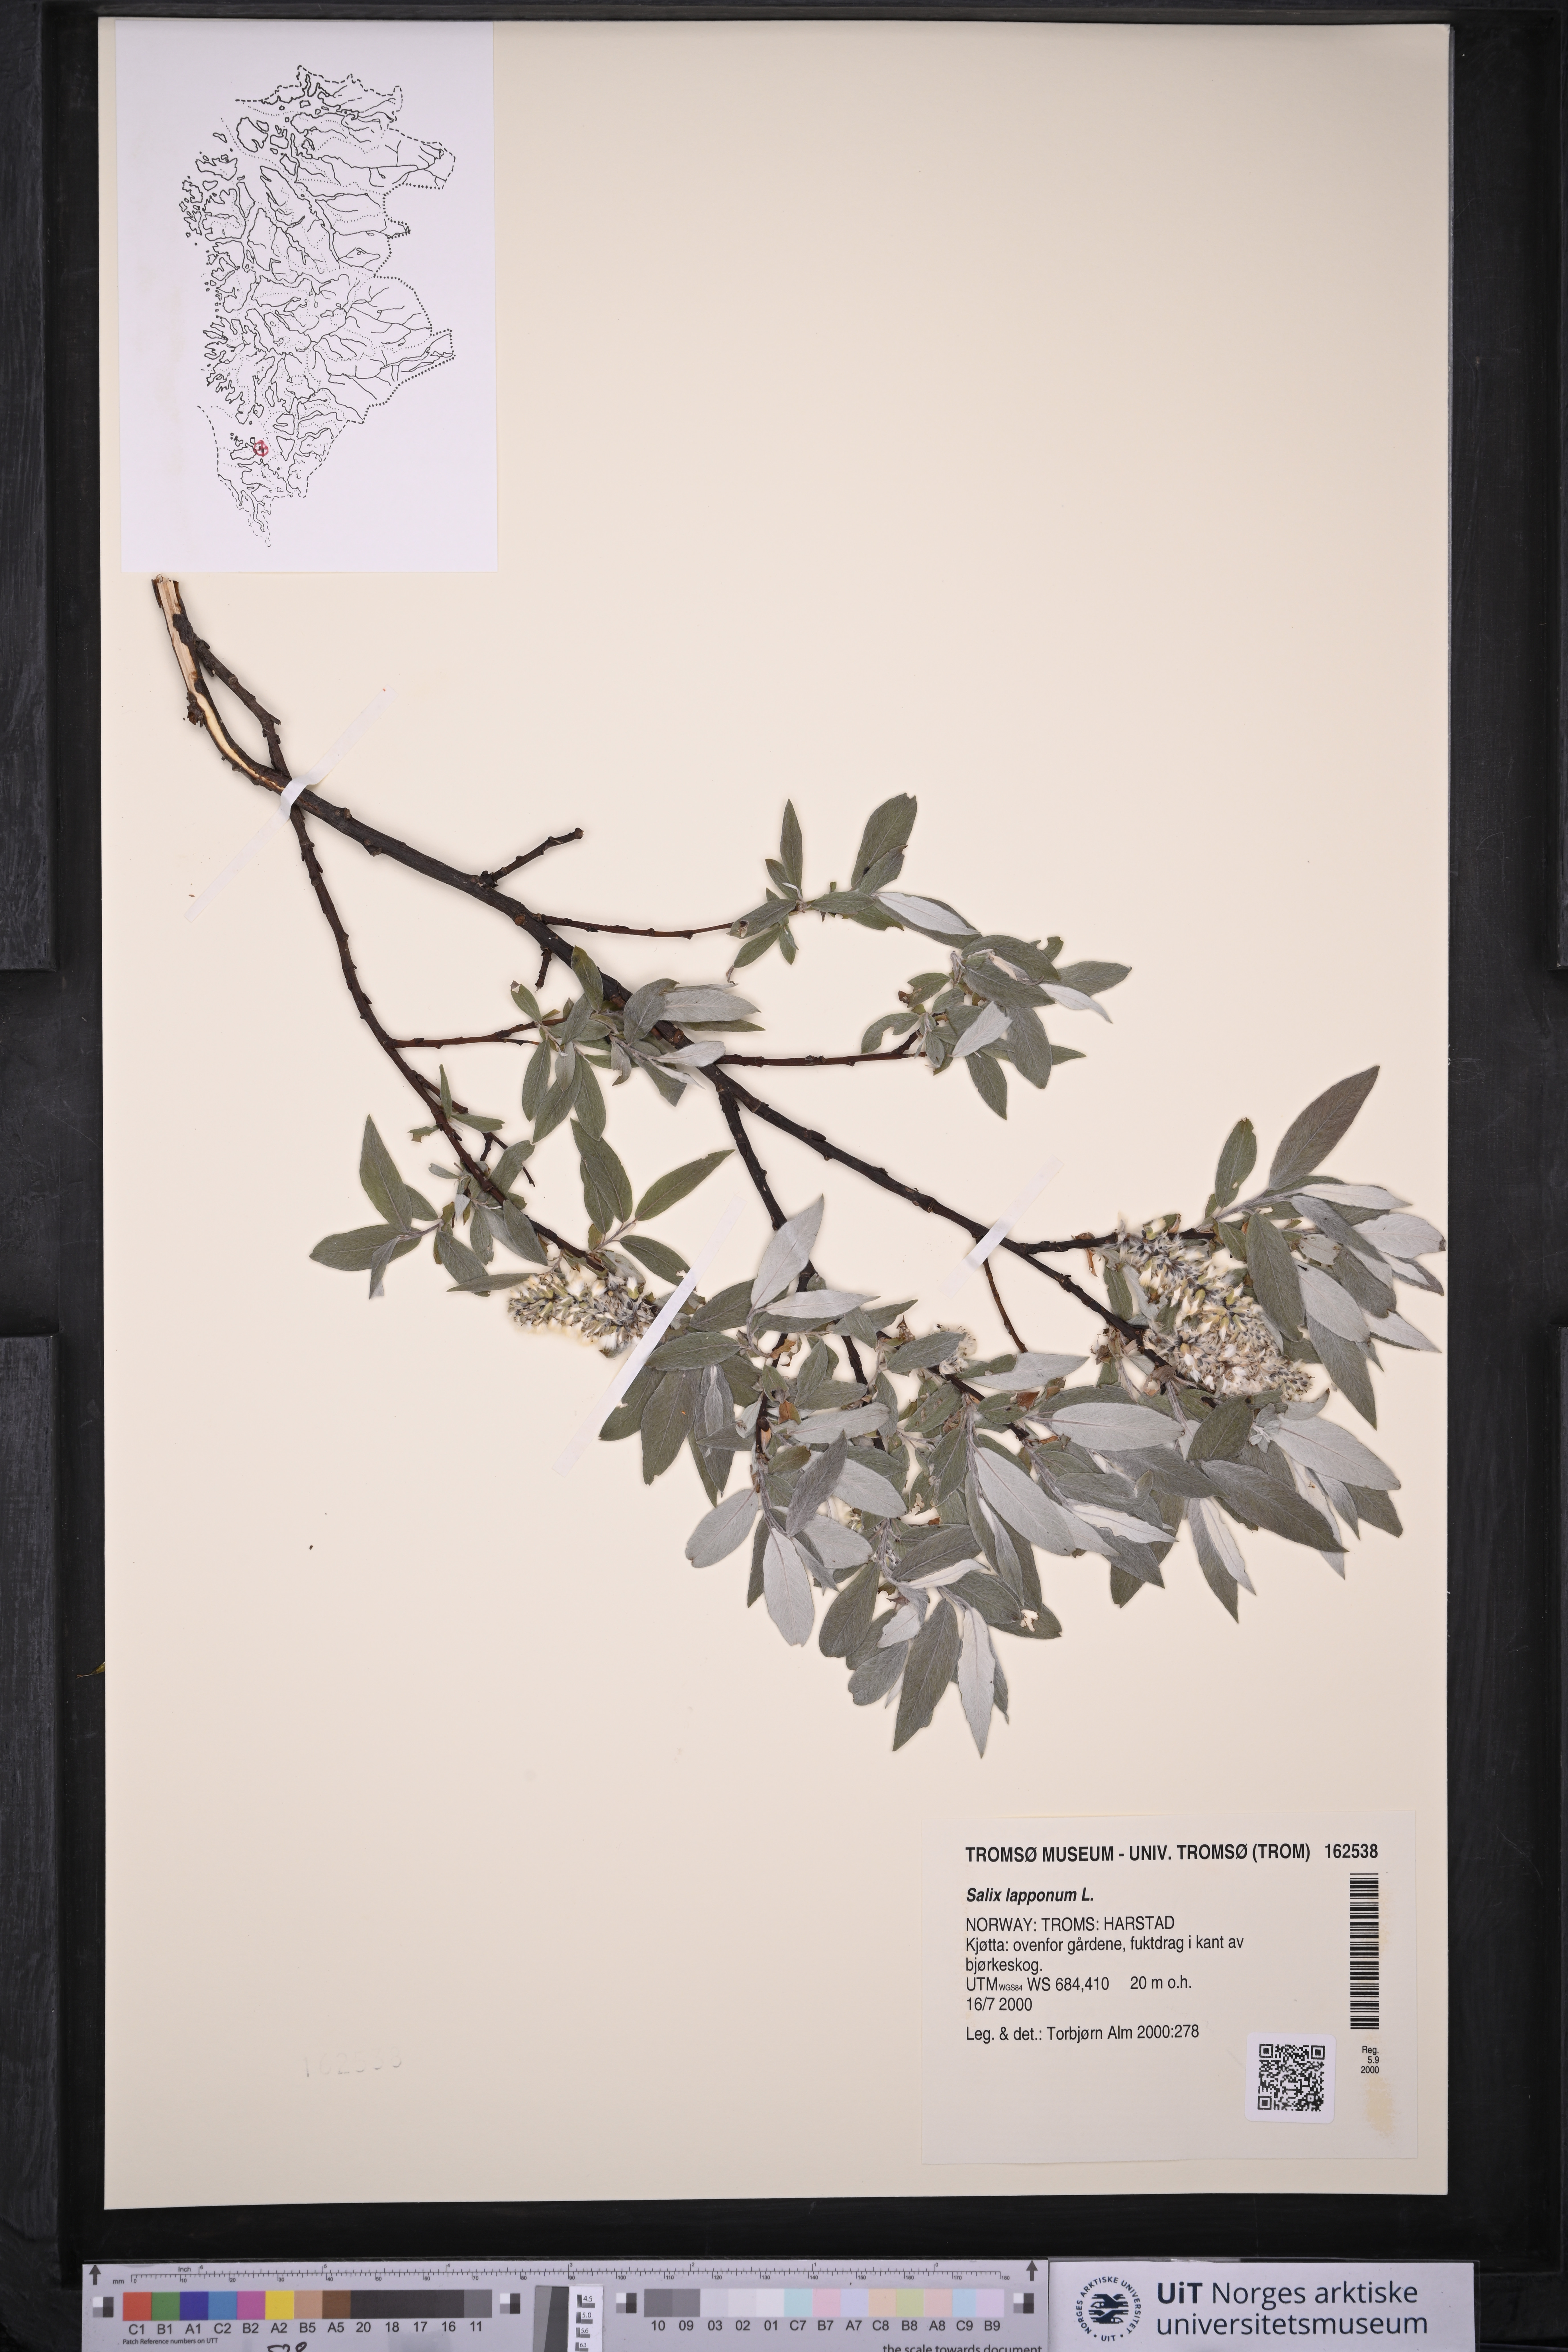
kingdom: Plantae
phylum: Tracheophyta
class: Magnoliopsida
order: Malpighiales
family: Salicaceae
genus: Salix
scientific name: Salix lapponum
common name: Downy willow
